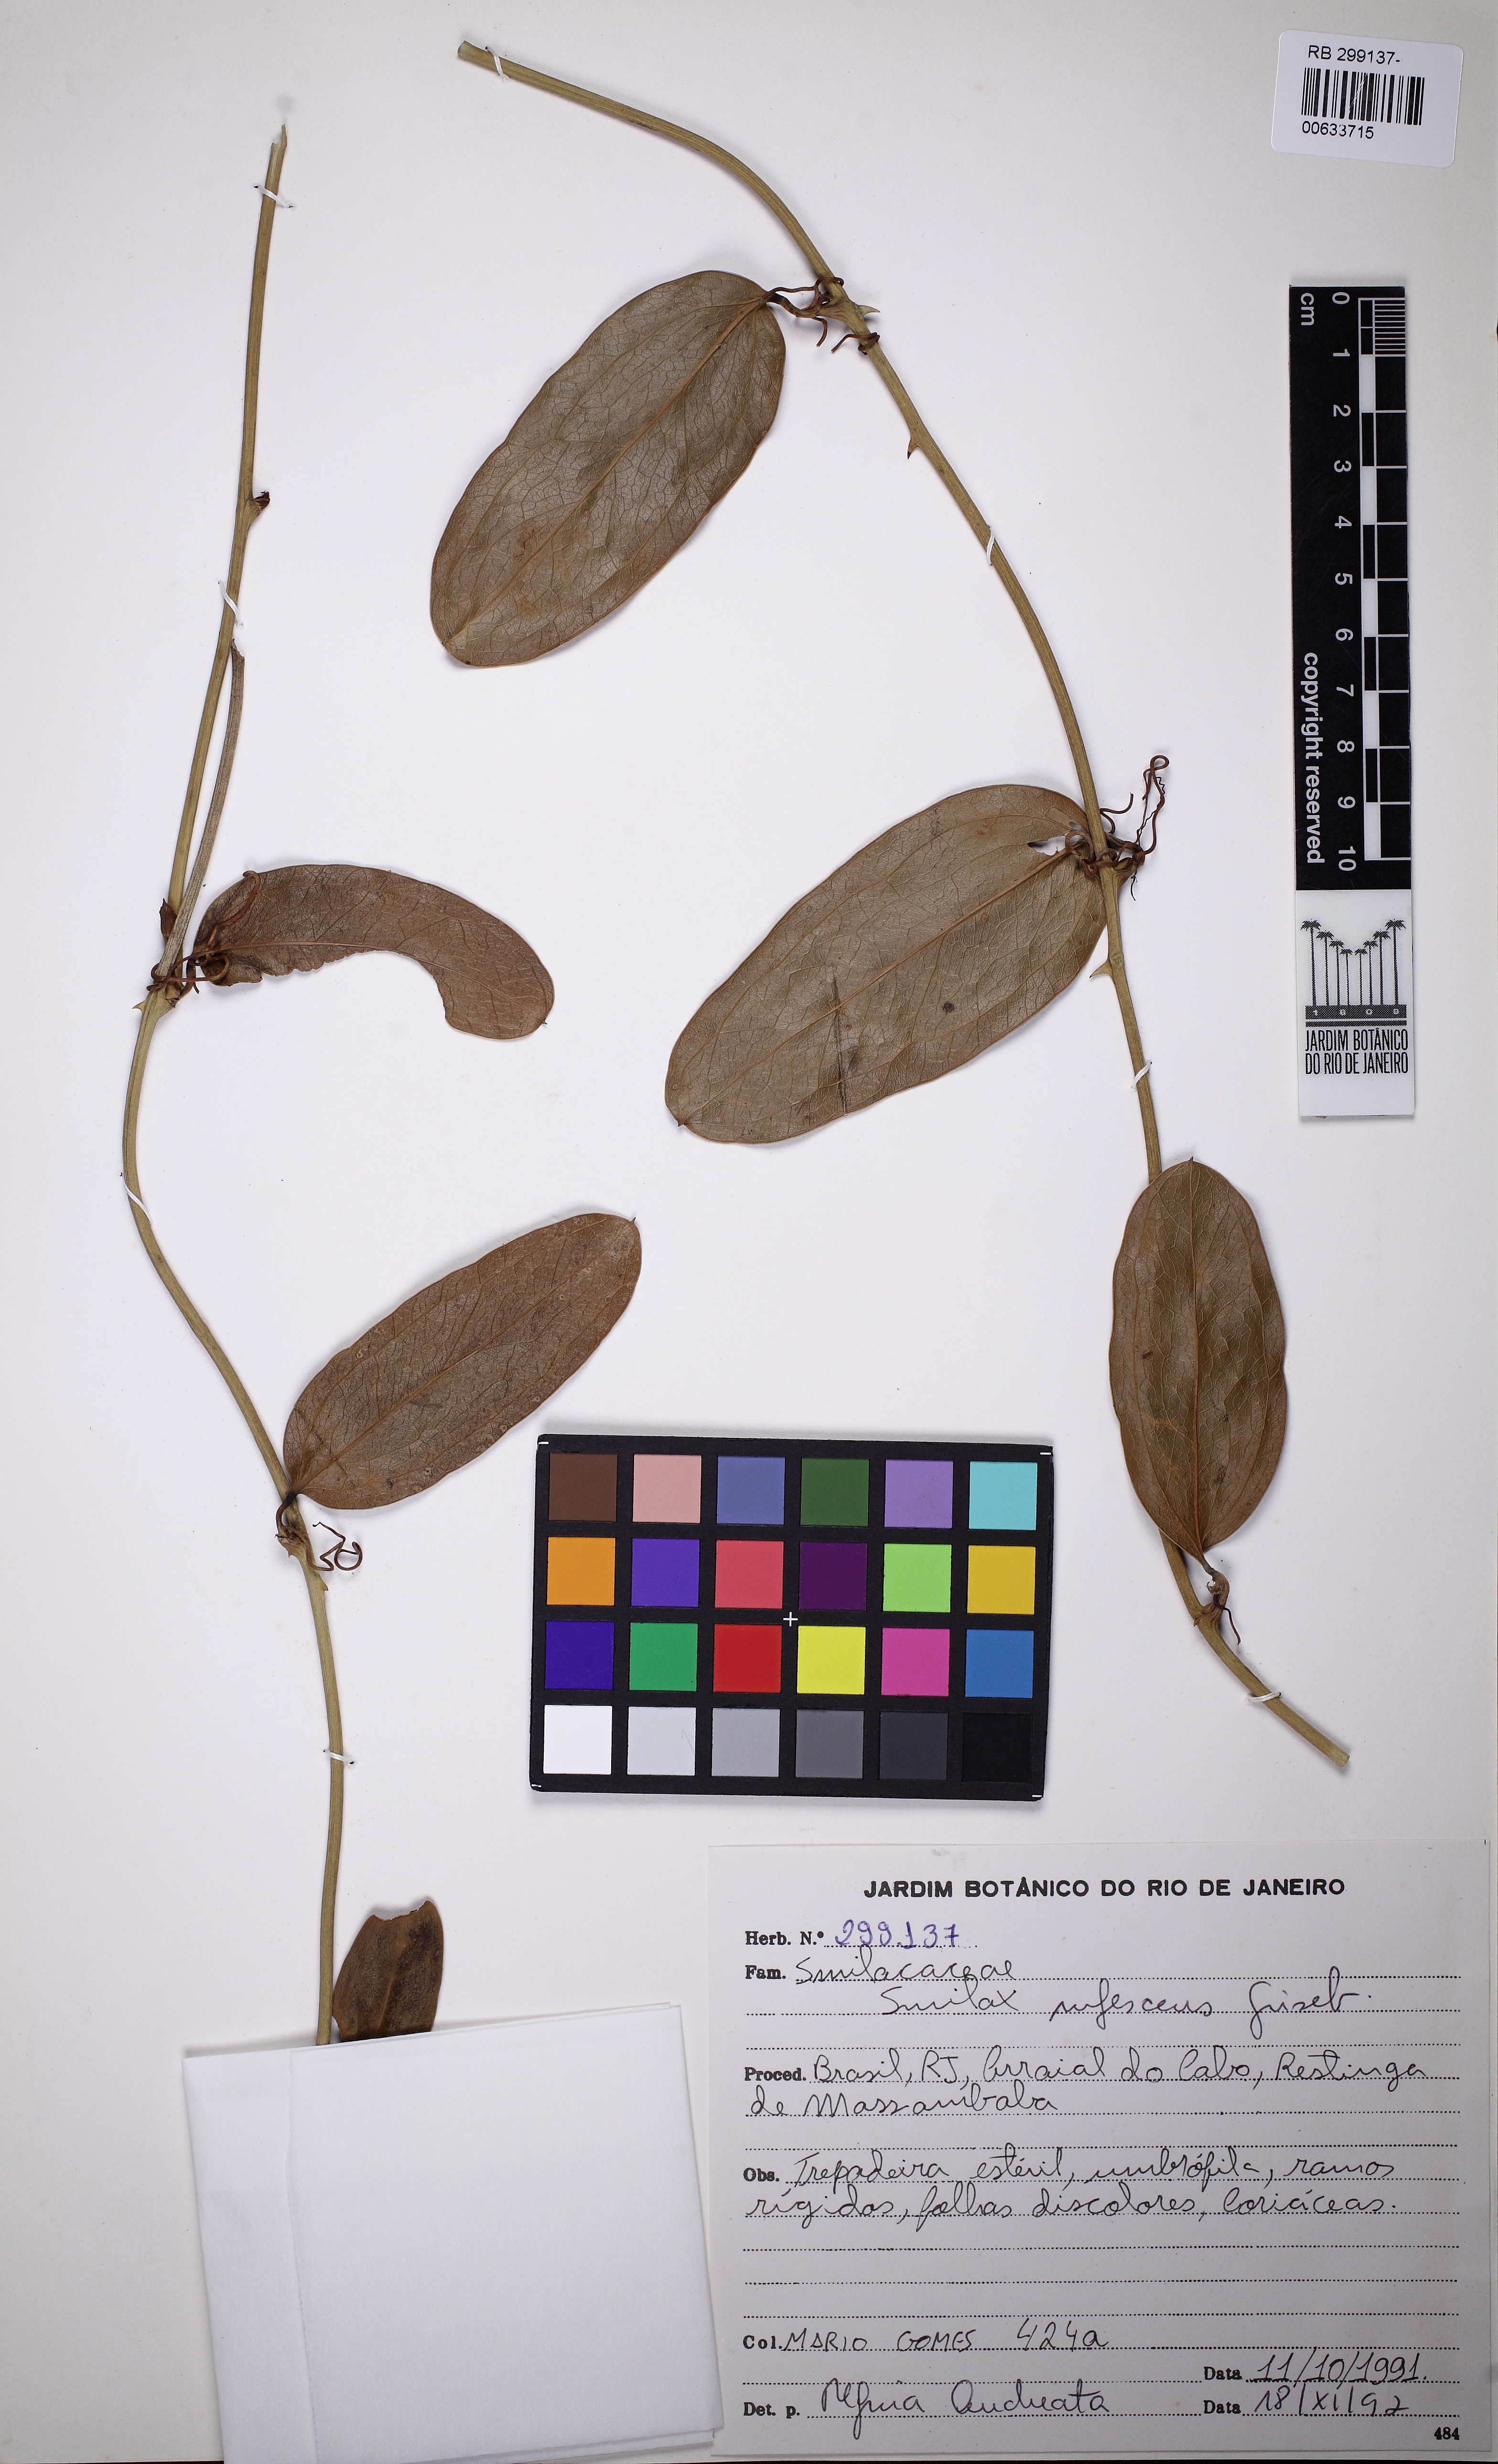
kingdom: Plantae
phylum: Tracheophyta
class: Liliopsida
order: Liliales
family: Smilacaceae
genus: Smilax
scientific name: Smilax rufescens
